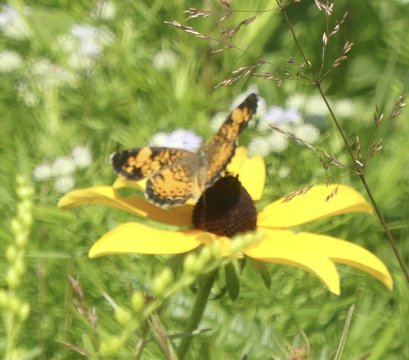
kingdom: Animalia
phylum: Arthropoda
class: Insecta
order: Lepidoptera
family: Nymphalidae
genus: Phyciodes
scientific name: Phyciodes tharos
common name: Pearl Crescent
